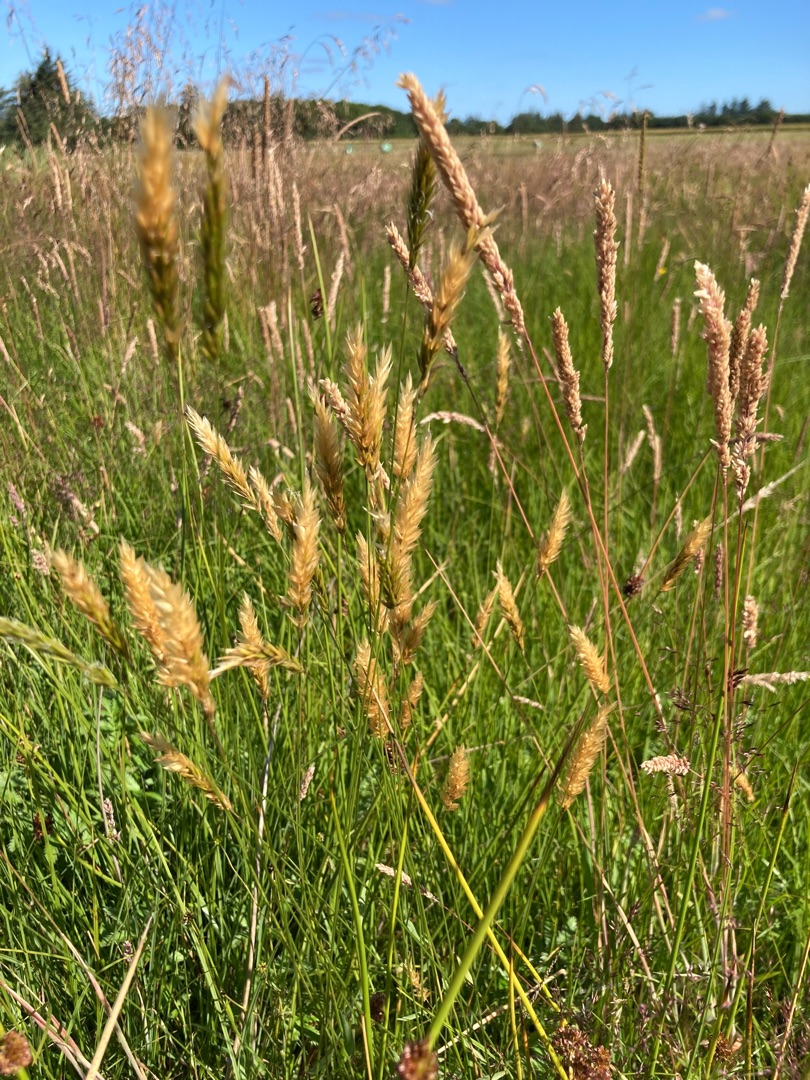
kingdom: Plantae
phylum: Tracheophyta
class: Liliopsida
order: Poales
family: Poaceae
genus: Anthoxanthum
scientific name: Anthoxanthum odoratum
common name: Vellugtende gulaks
